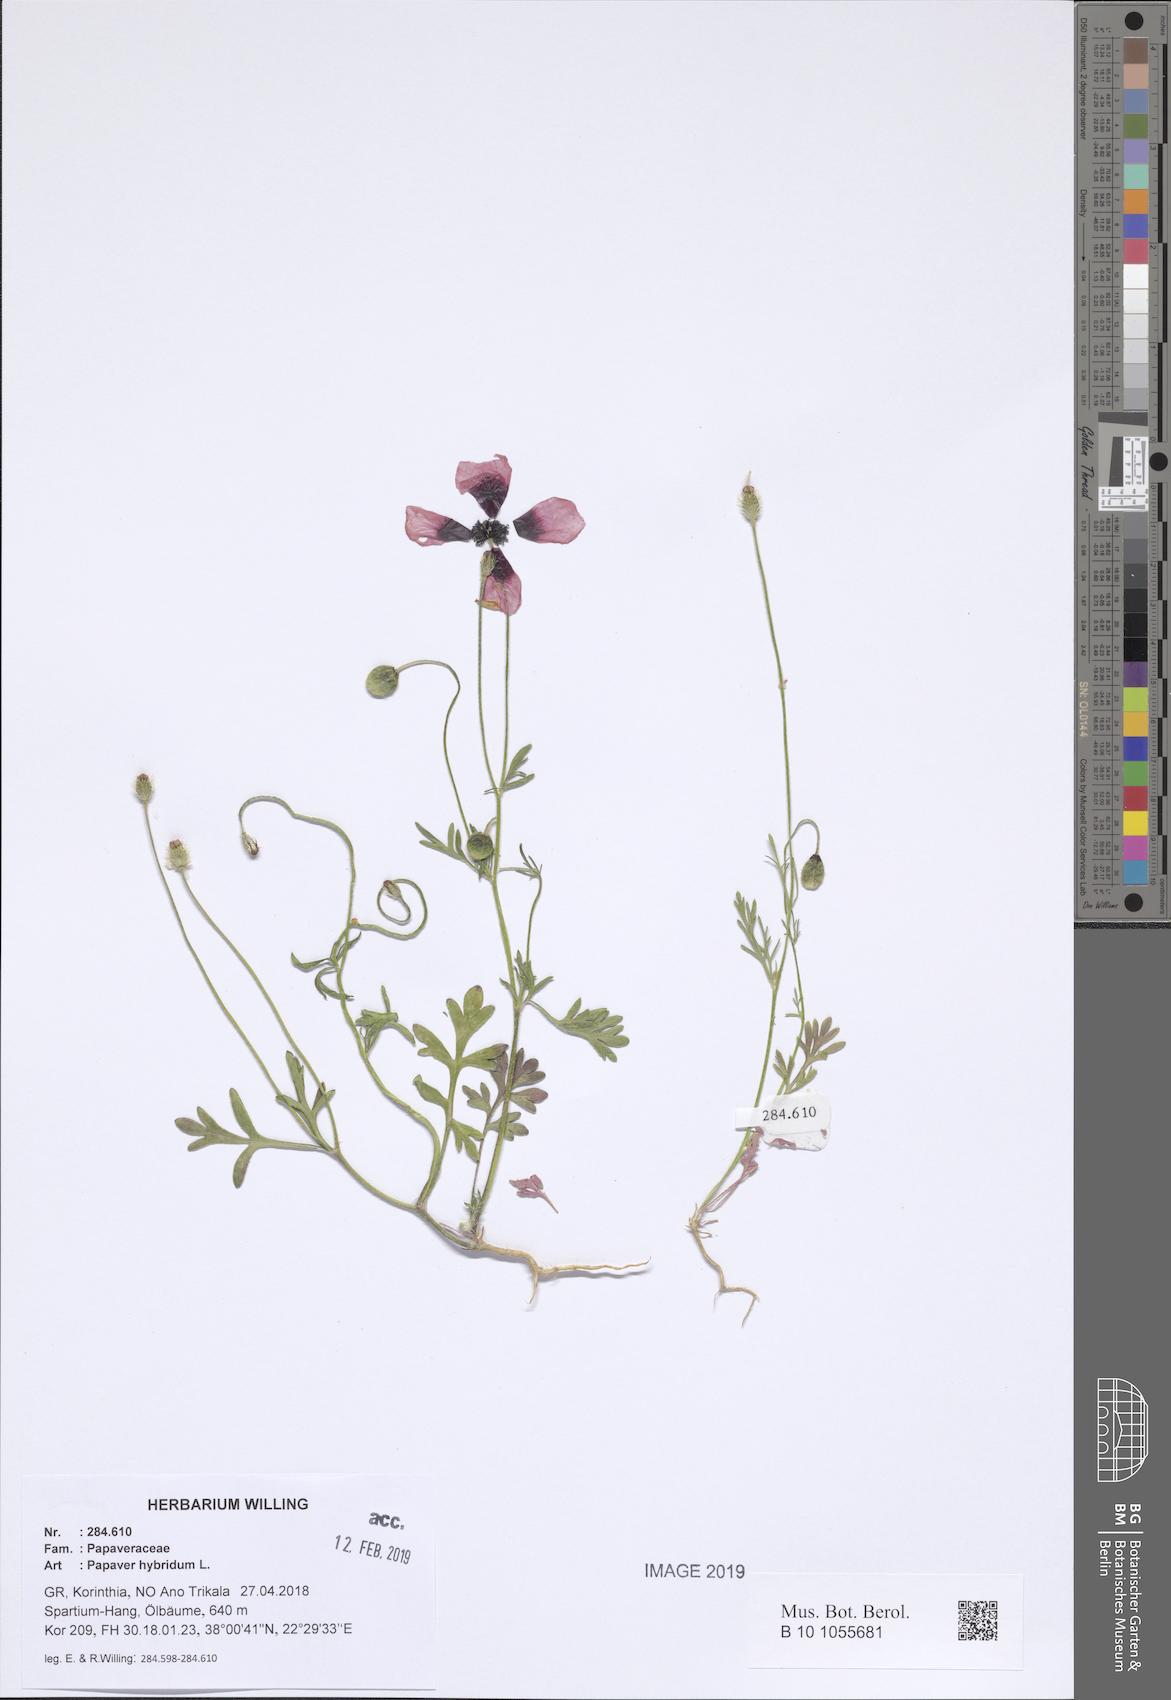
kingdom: Plantae
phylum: Tracheophyta
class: Magnoliopsida
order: Ranunculales
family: Papaveraceae
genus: Roemeria
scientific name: Roemeria hispida
